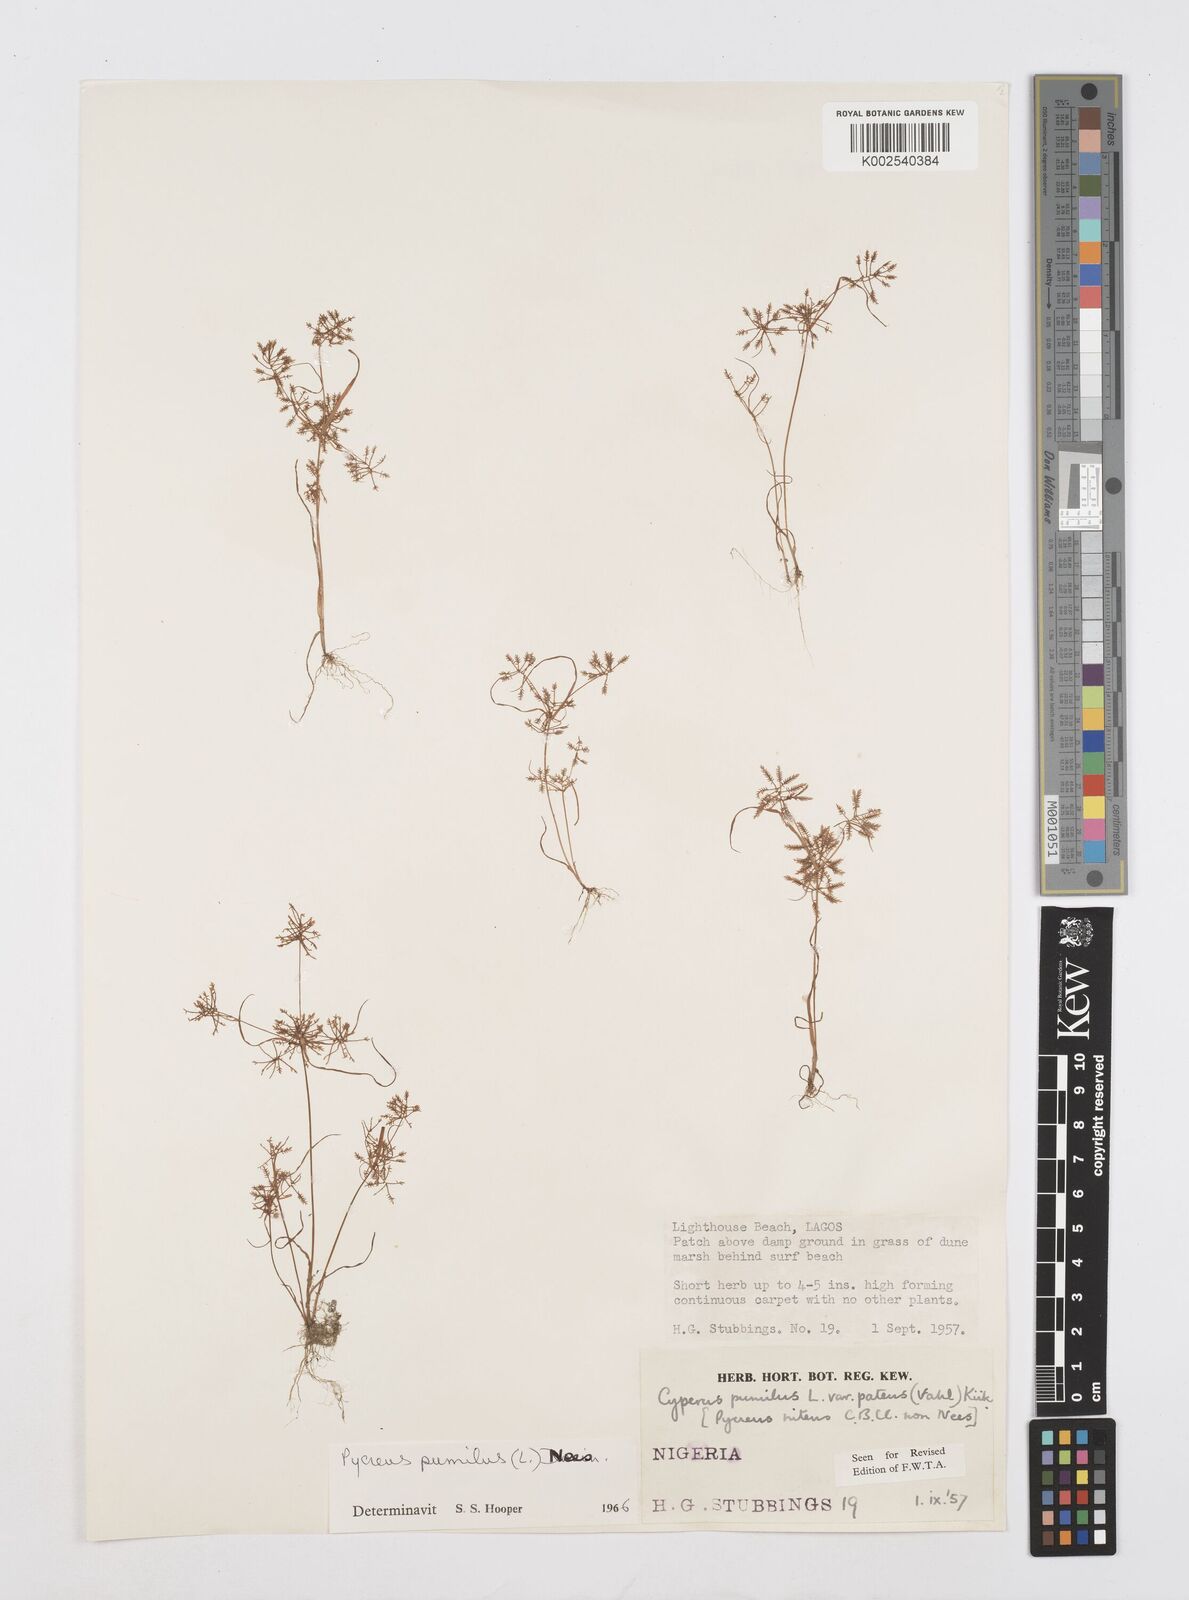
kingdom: Plantae
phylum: Tracheophyta
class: Liliopsida
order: Poales
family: Cyperaceae
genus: Cyperus
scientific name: Cyperus pumilus
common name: Low flatsedge
